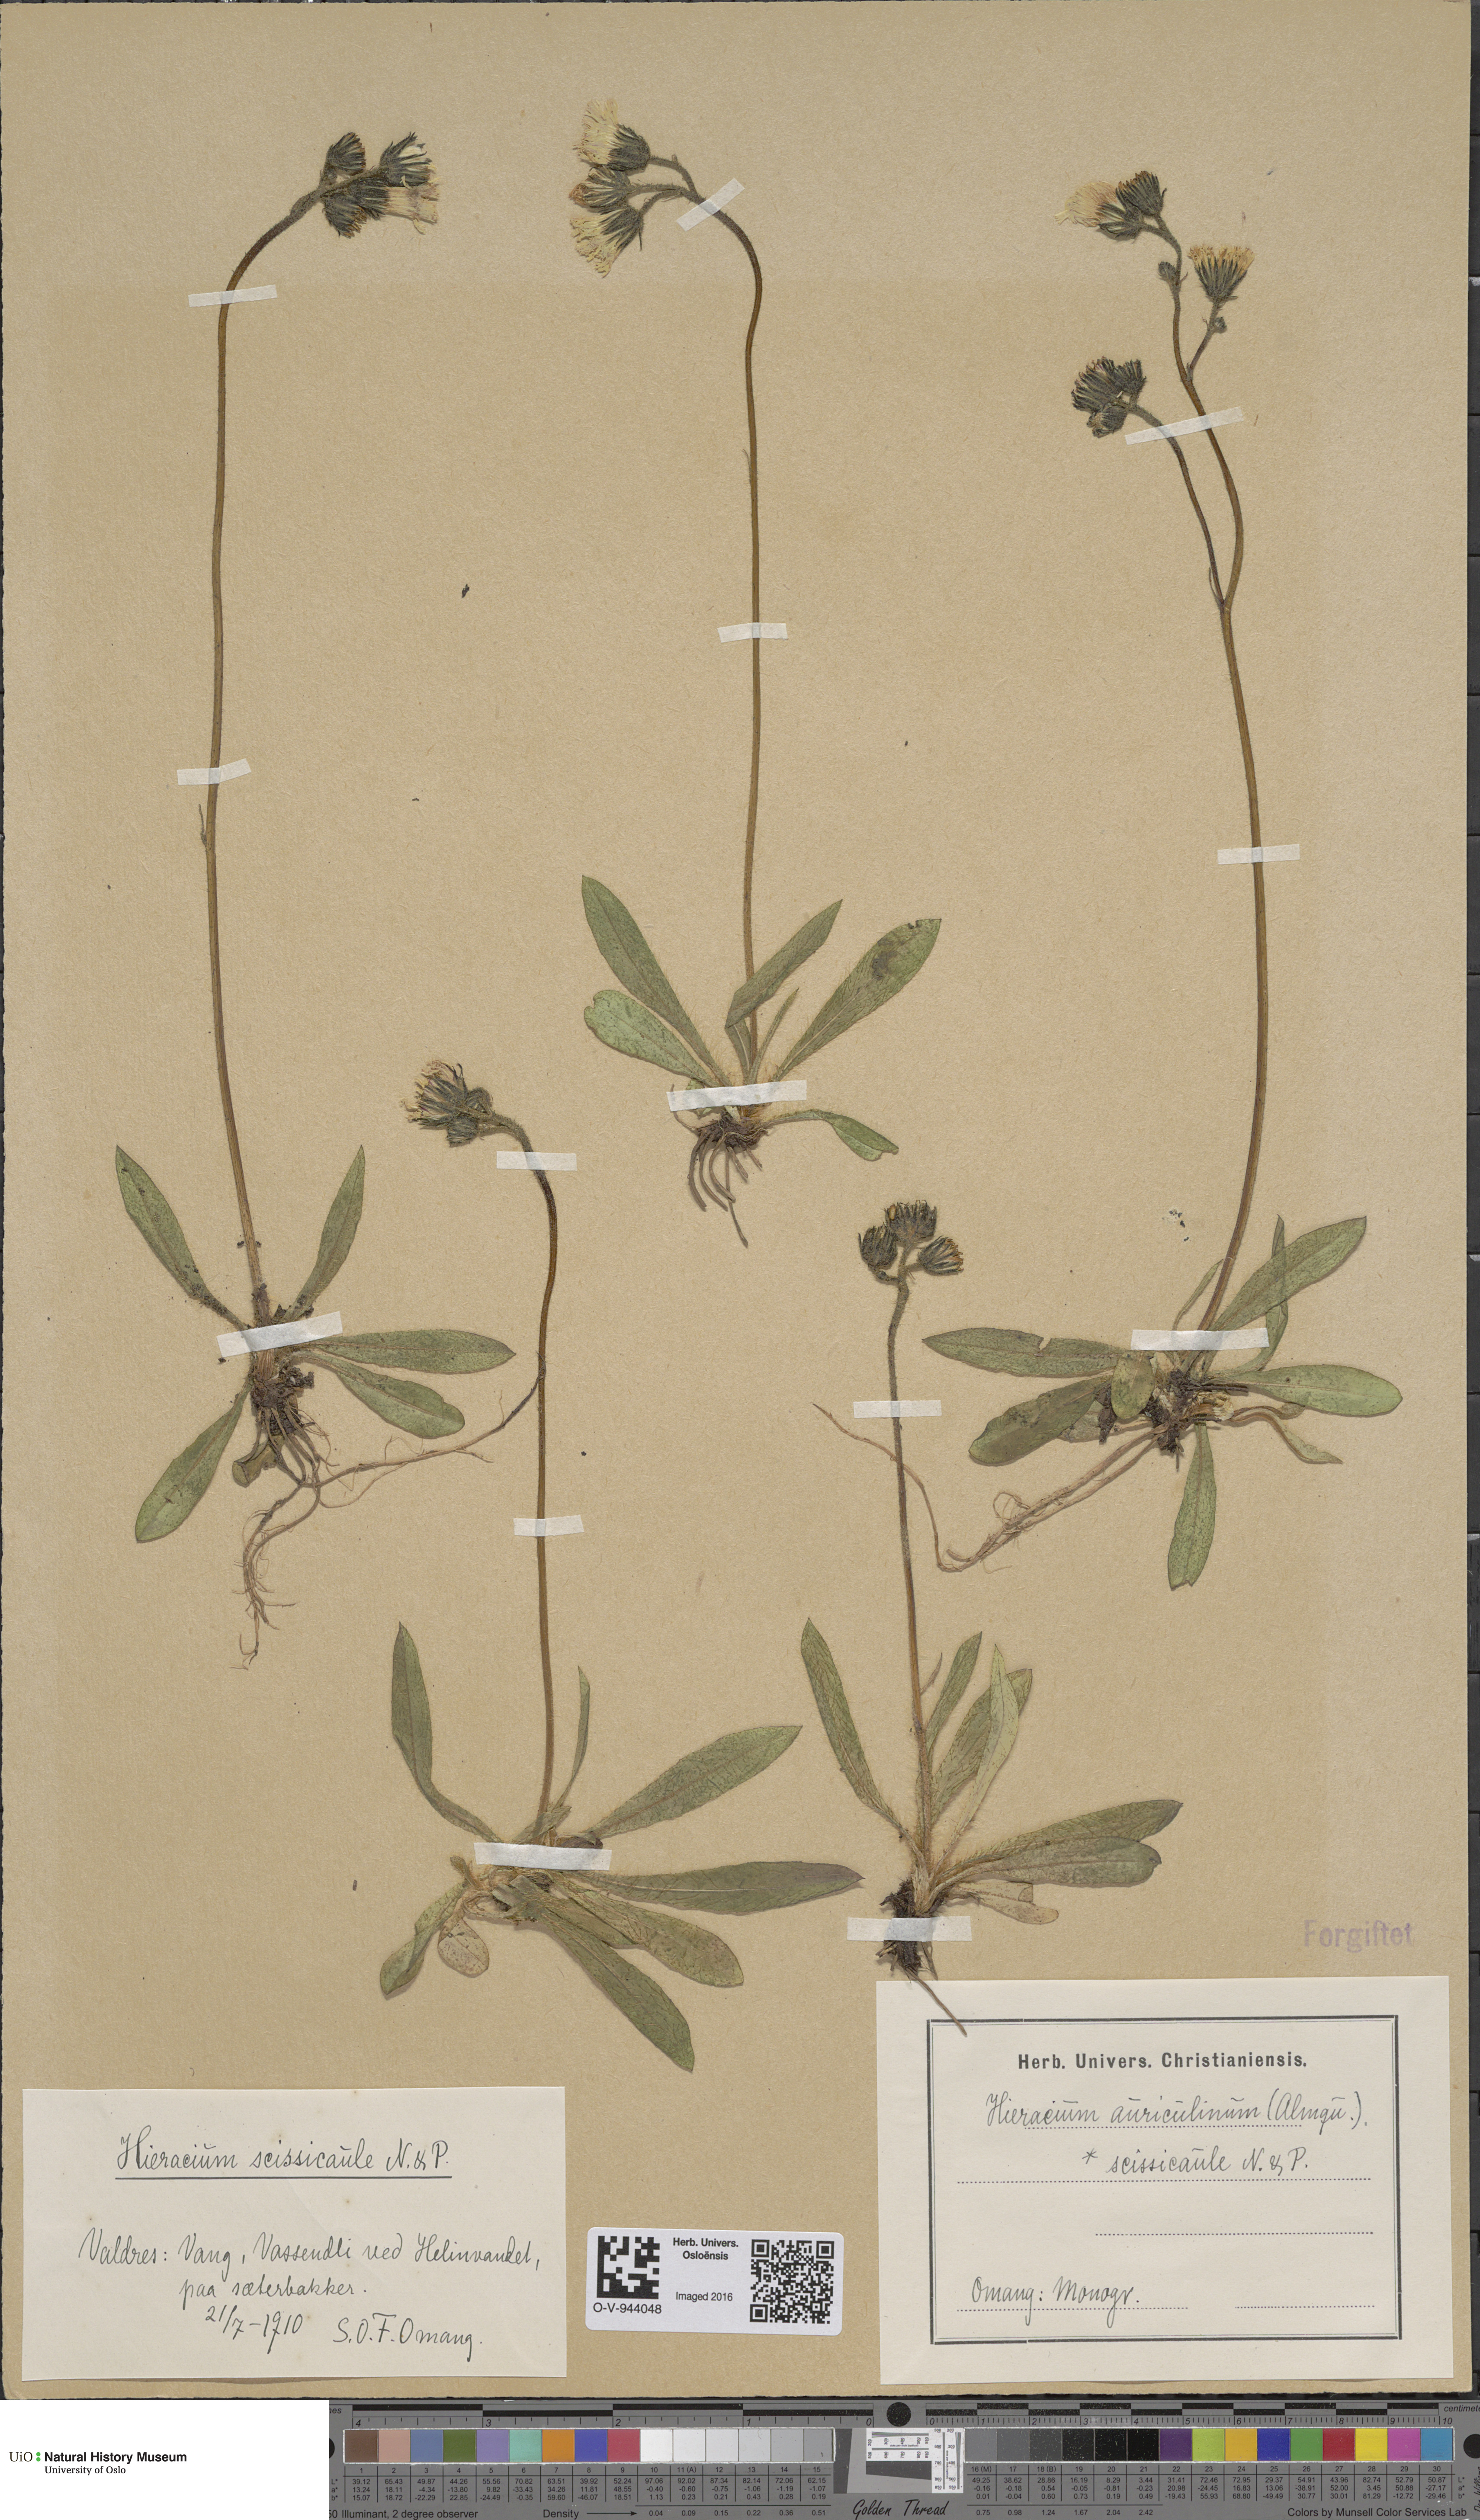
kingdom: Plantae
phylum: Tracheophyta
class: Magnoliopsida
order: Asterales
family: Asteraceae
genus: Pilosella
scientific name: Pilosella dubia
